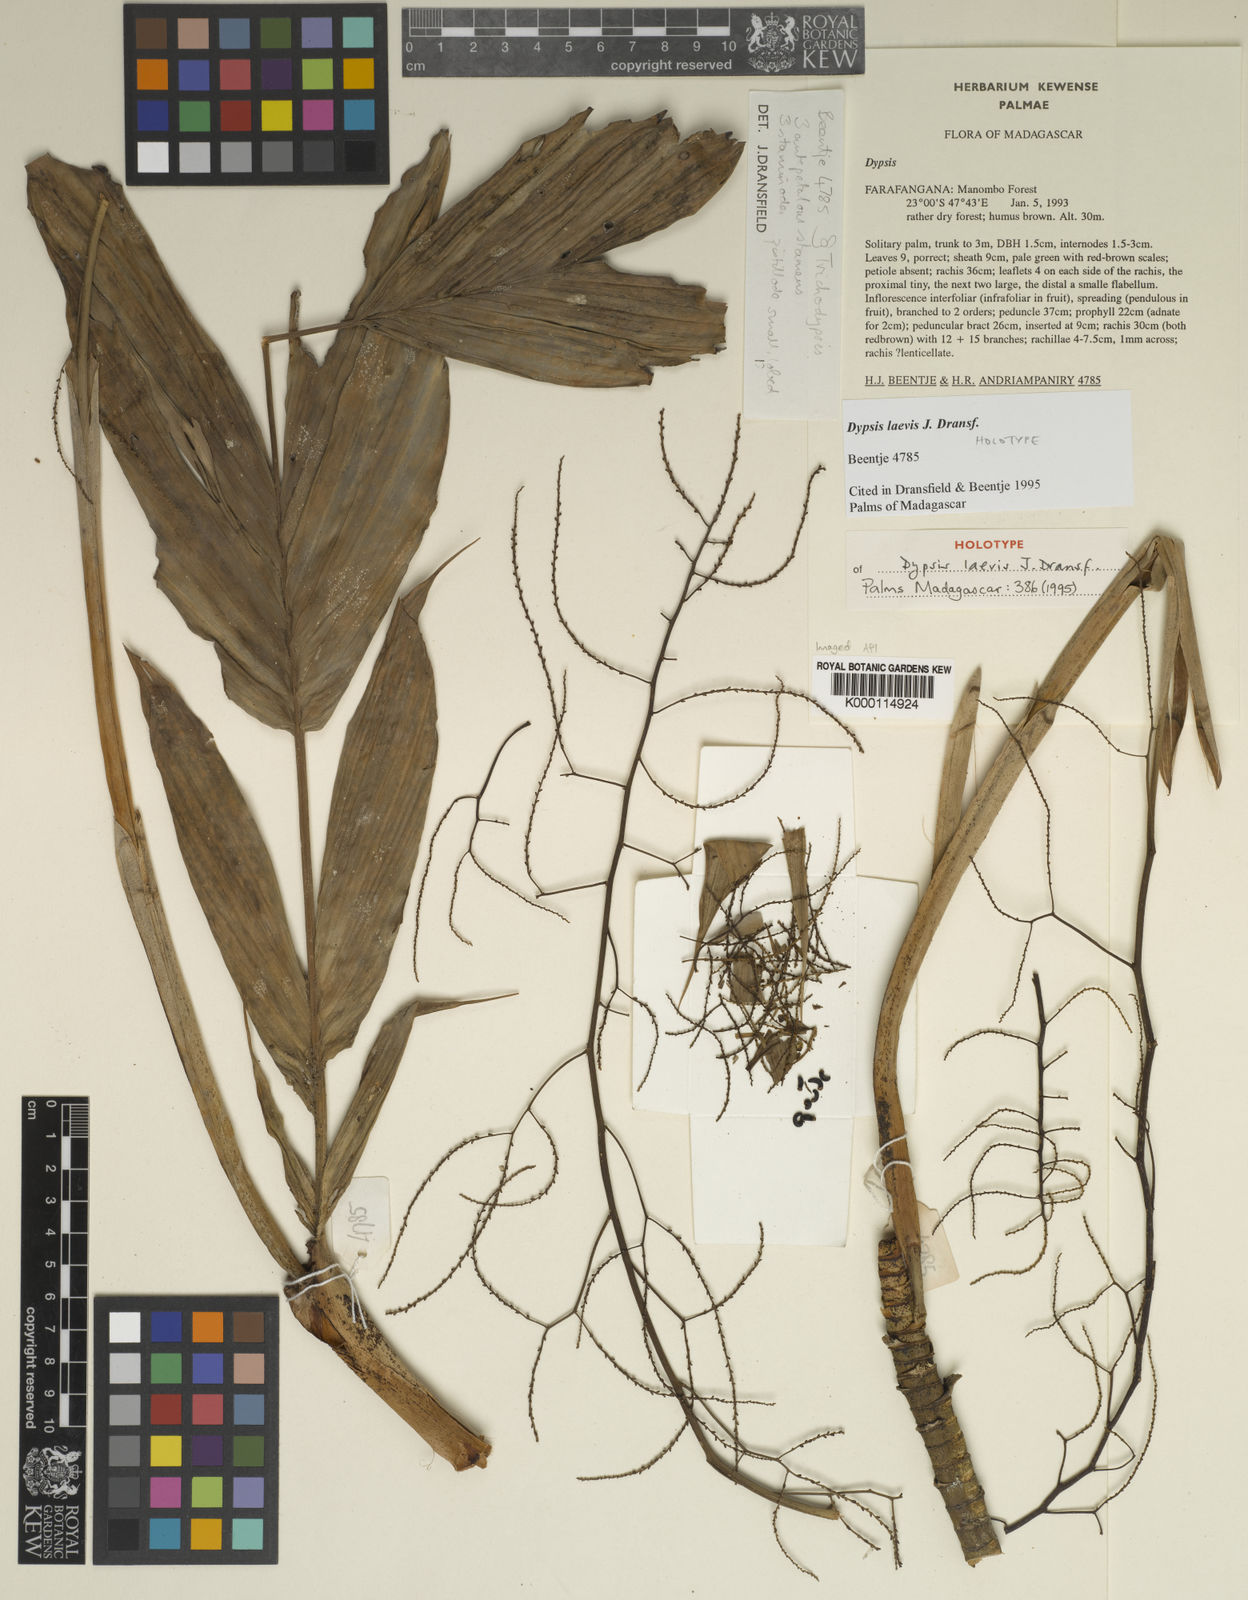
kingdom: Plantae
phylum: Tracheophyta
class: Liliopsida
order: Arecales
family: Arecaceae
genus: Dypsis
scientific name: Dypsis laevis
